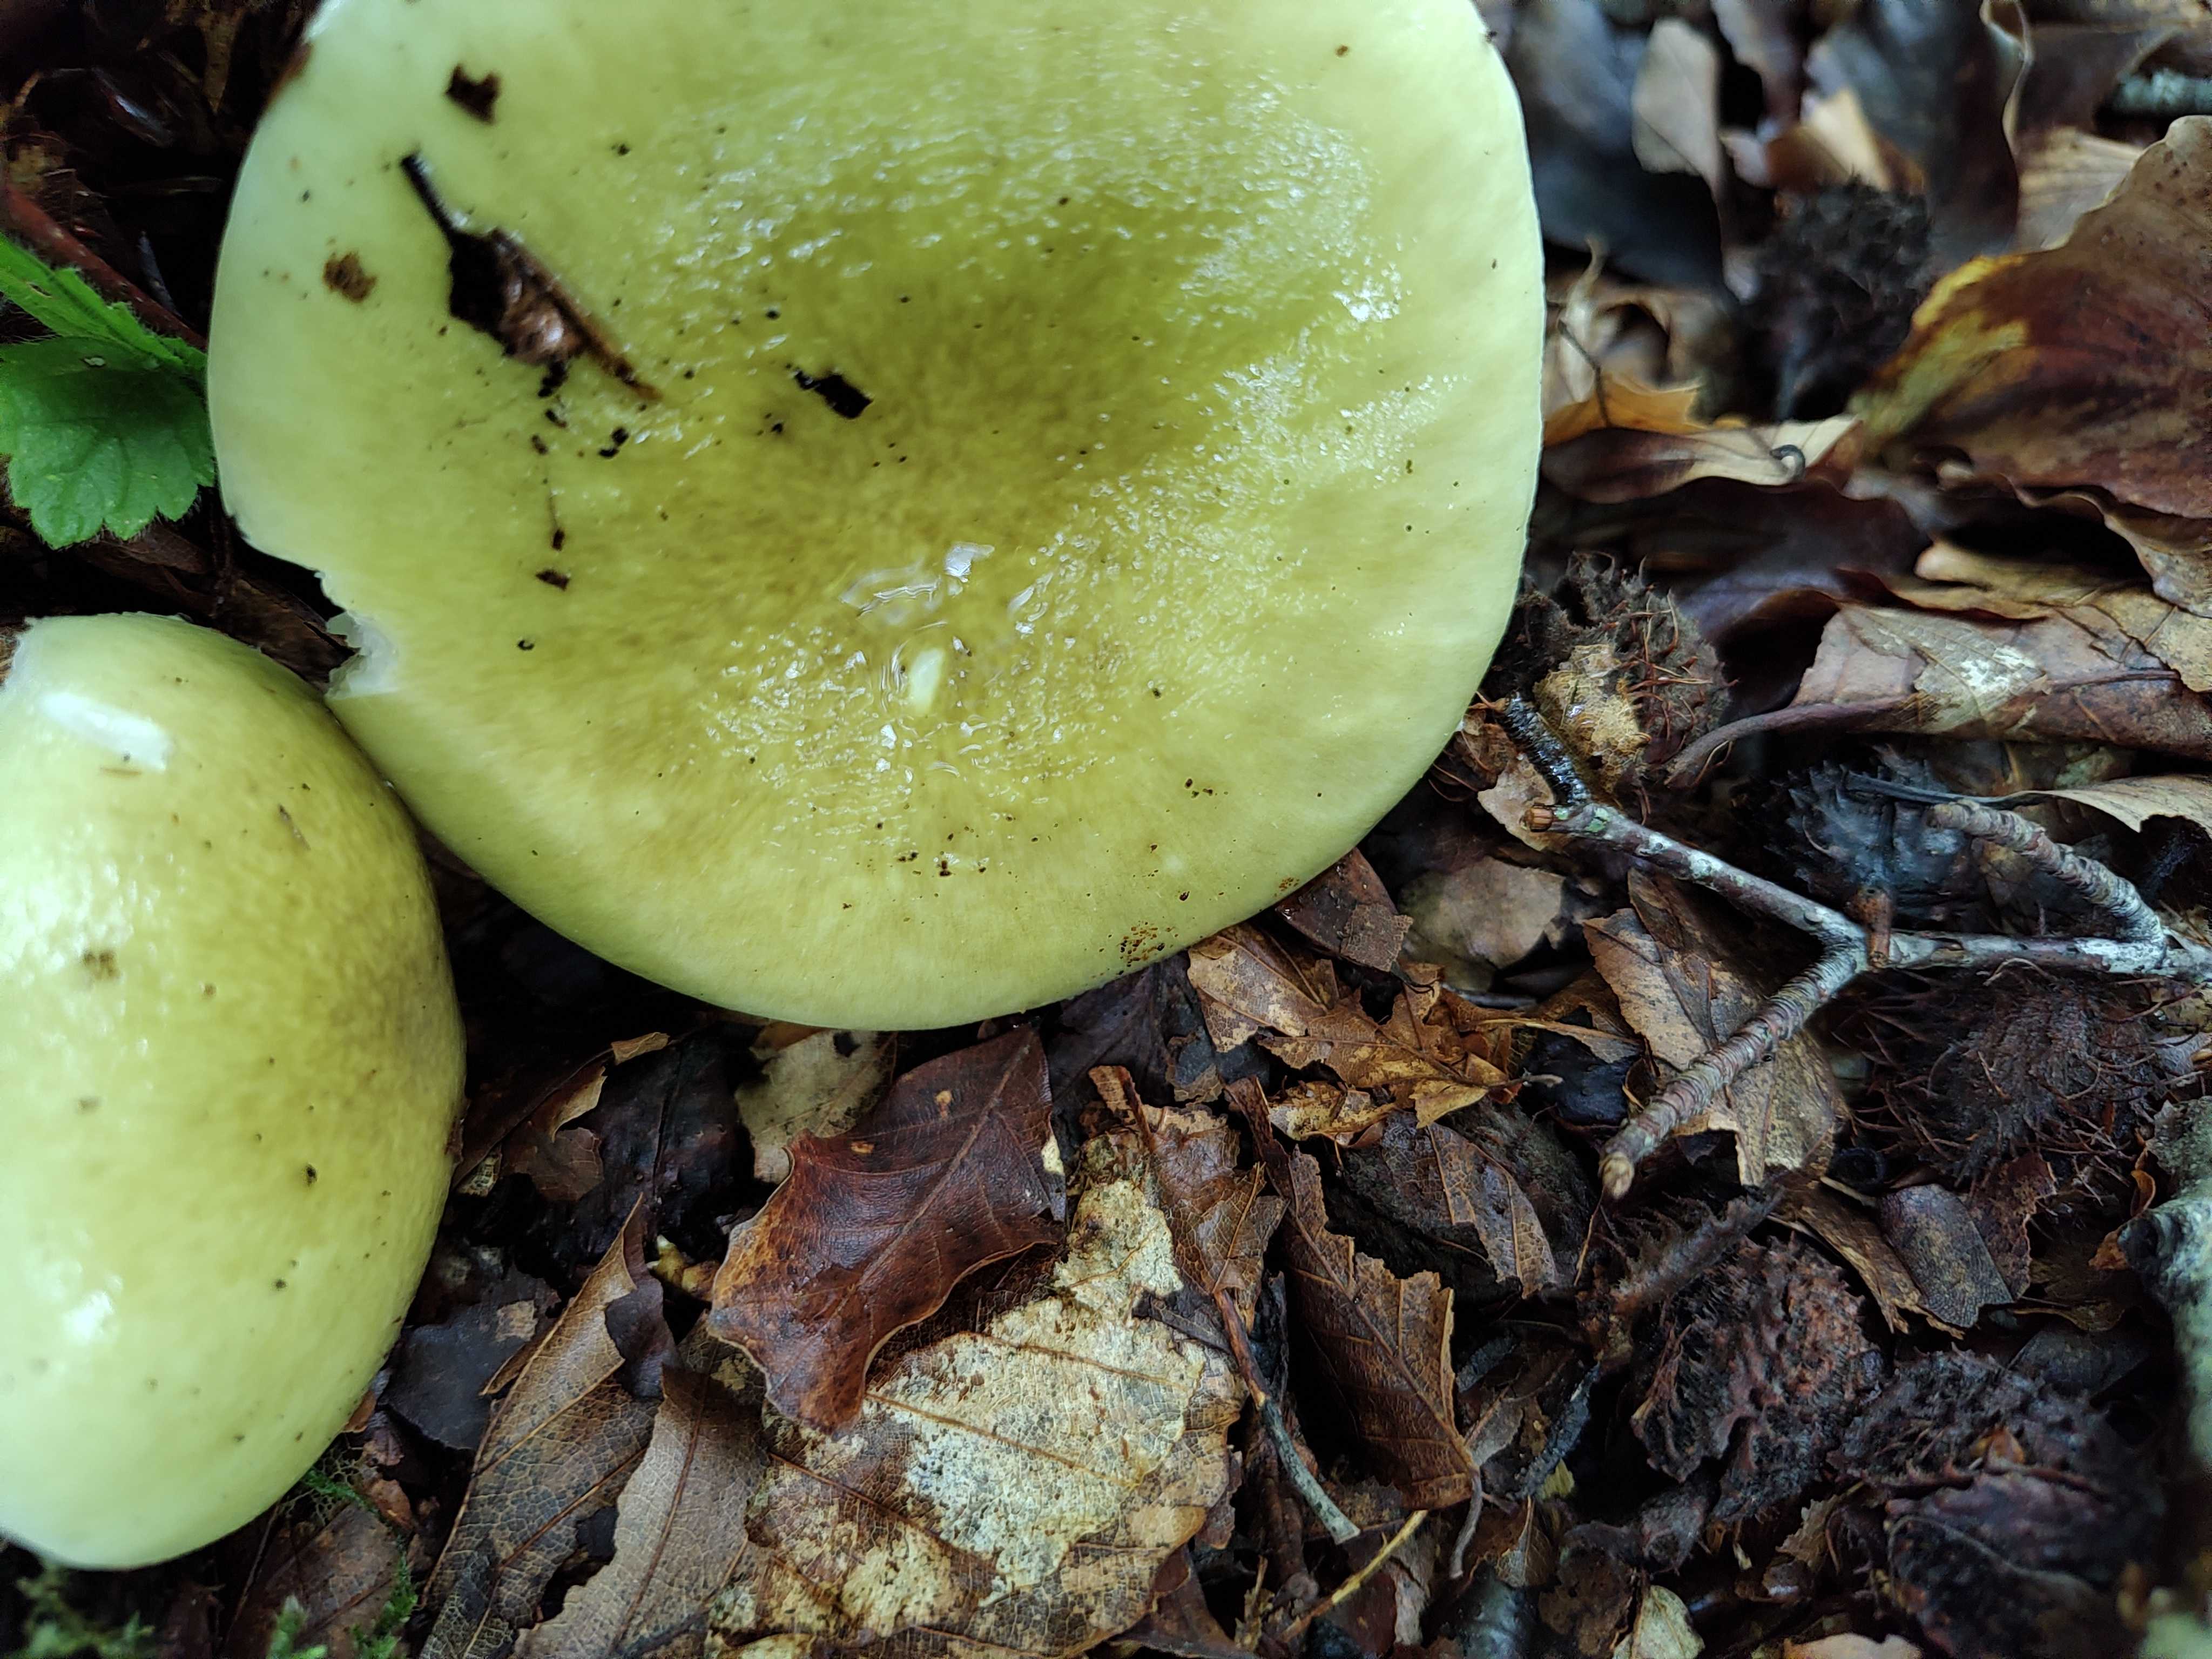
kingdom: Fungi
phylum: Basidiomycota
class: Agaricomycetes
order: Agaricales
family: Amanitaceae
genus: Amanita
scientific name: Amanita phalloides
